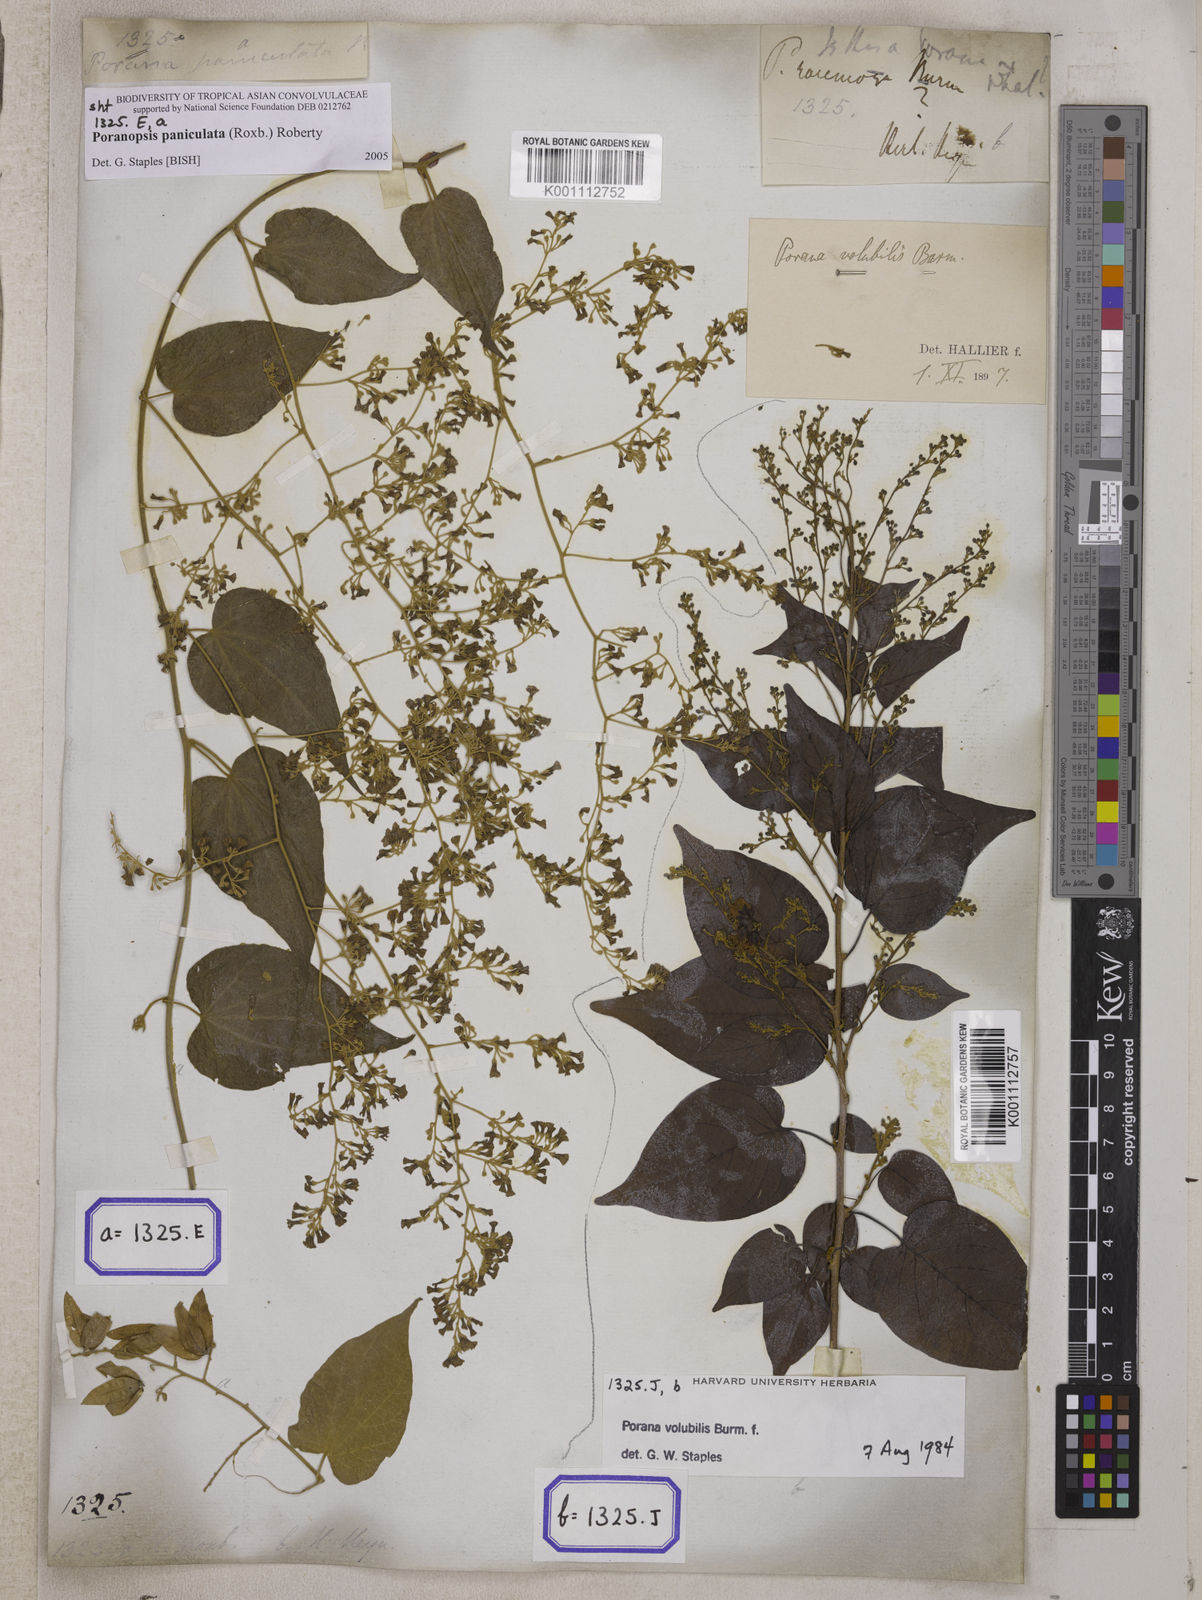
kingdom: Plantae
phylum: Tracheophyta
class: Magnoliopsida
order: Solanales
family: Convolvulaceae
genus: Poranopsis
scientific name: Poranopsis paniculata
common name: Bridal bouquet
